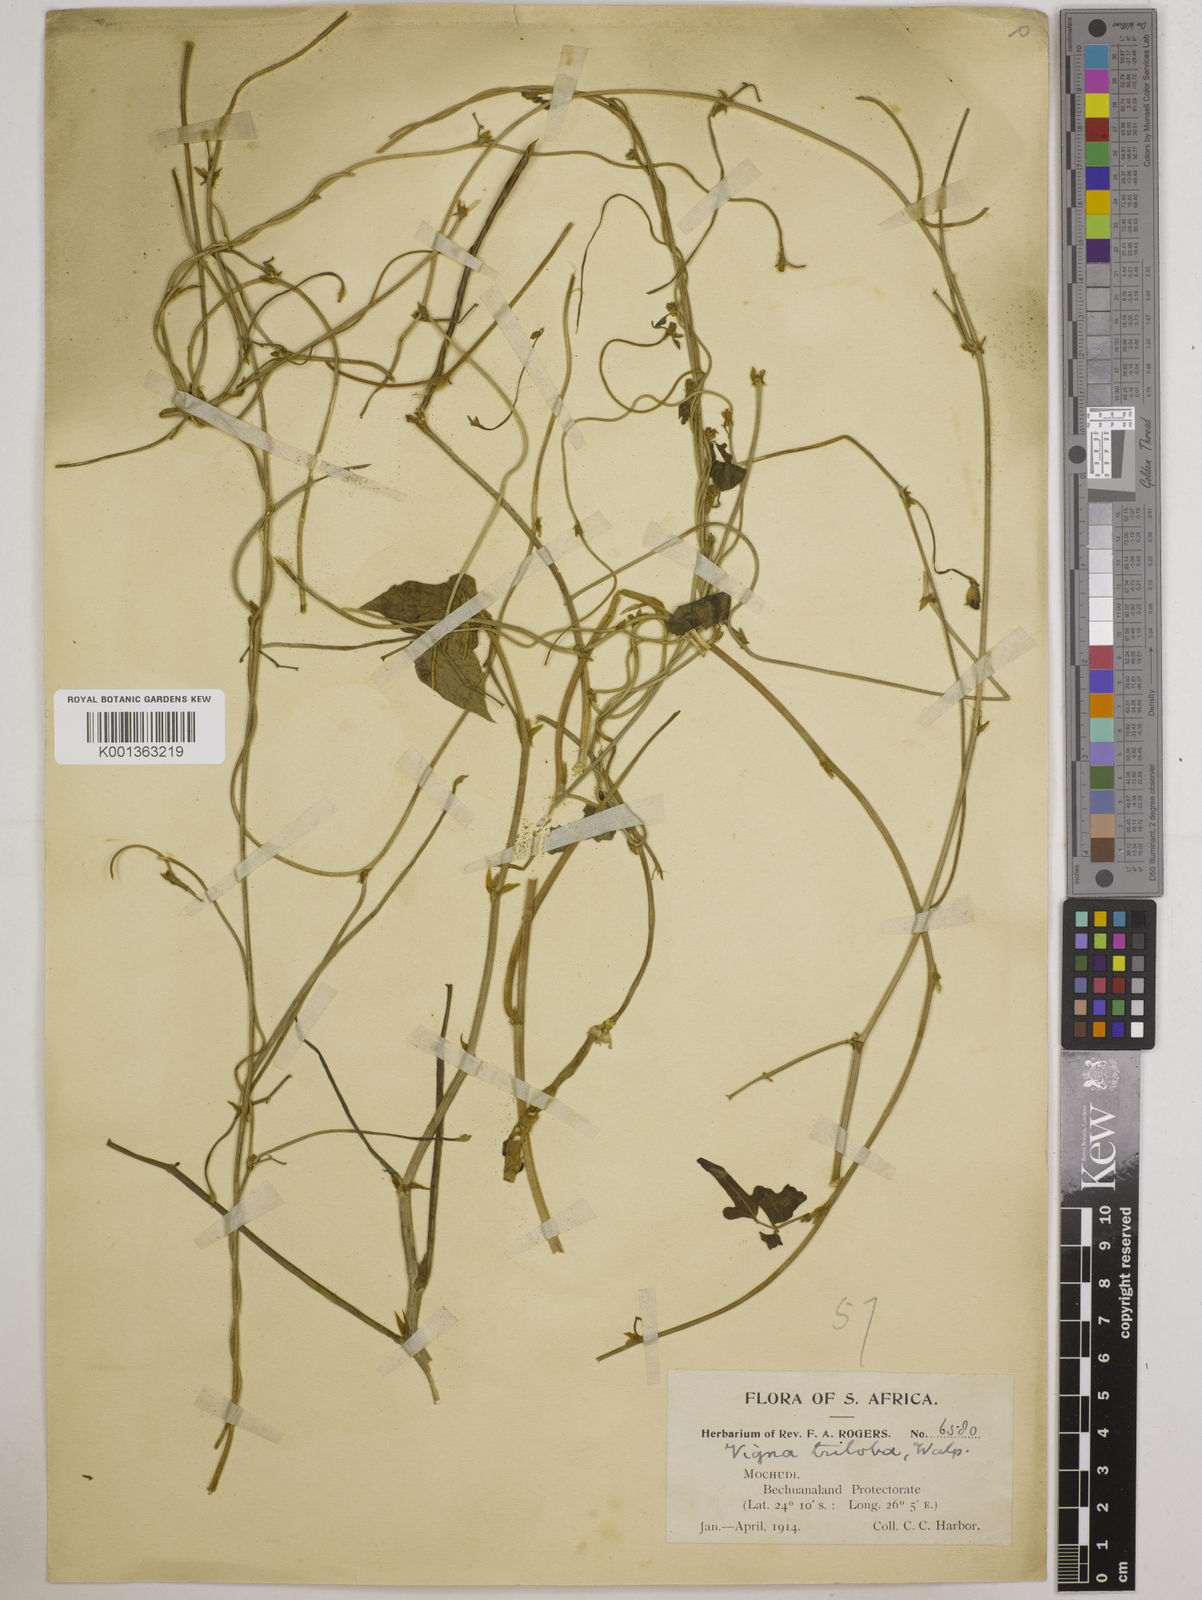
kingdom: Plantae
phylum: Tracheophyta
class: Magnoliopsida
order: Fabales
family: Fabaceae
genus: Vigna
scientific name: Vigna unguiculata
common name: Cowpea
